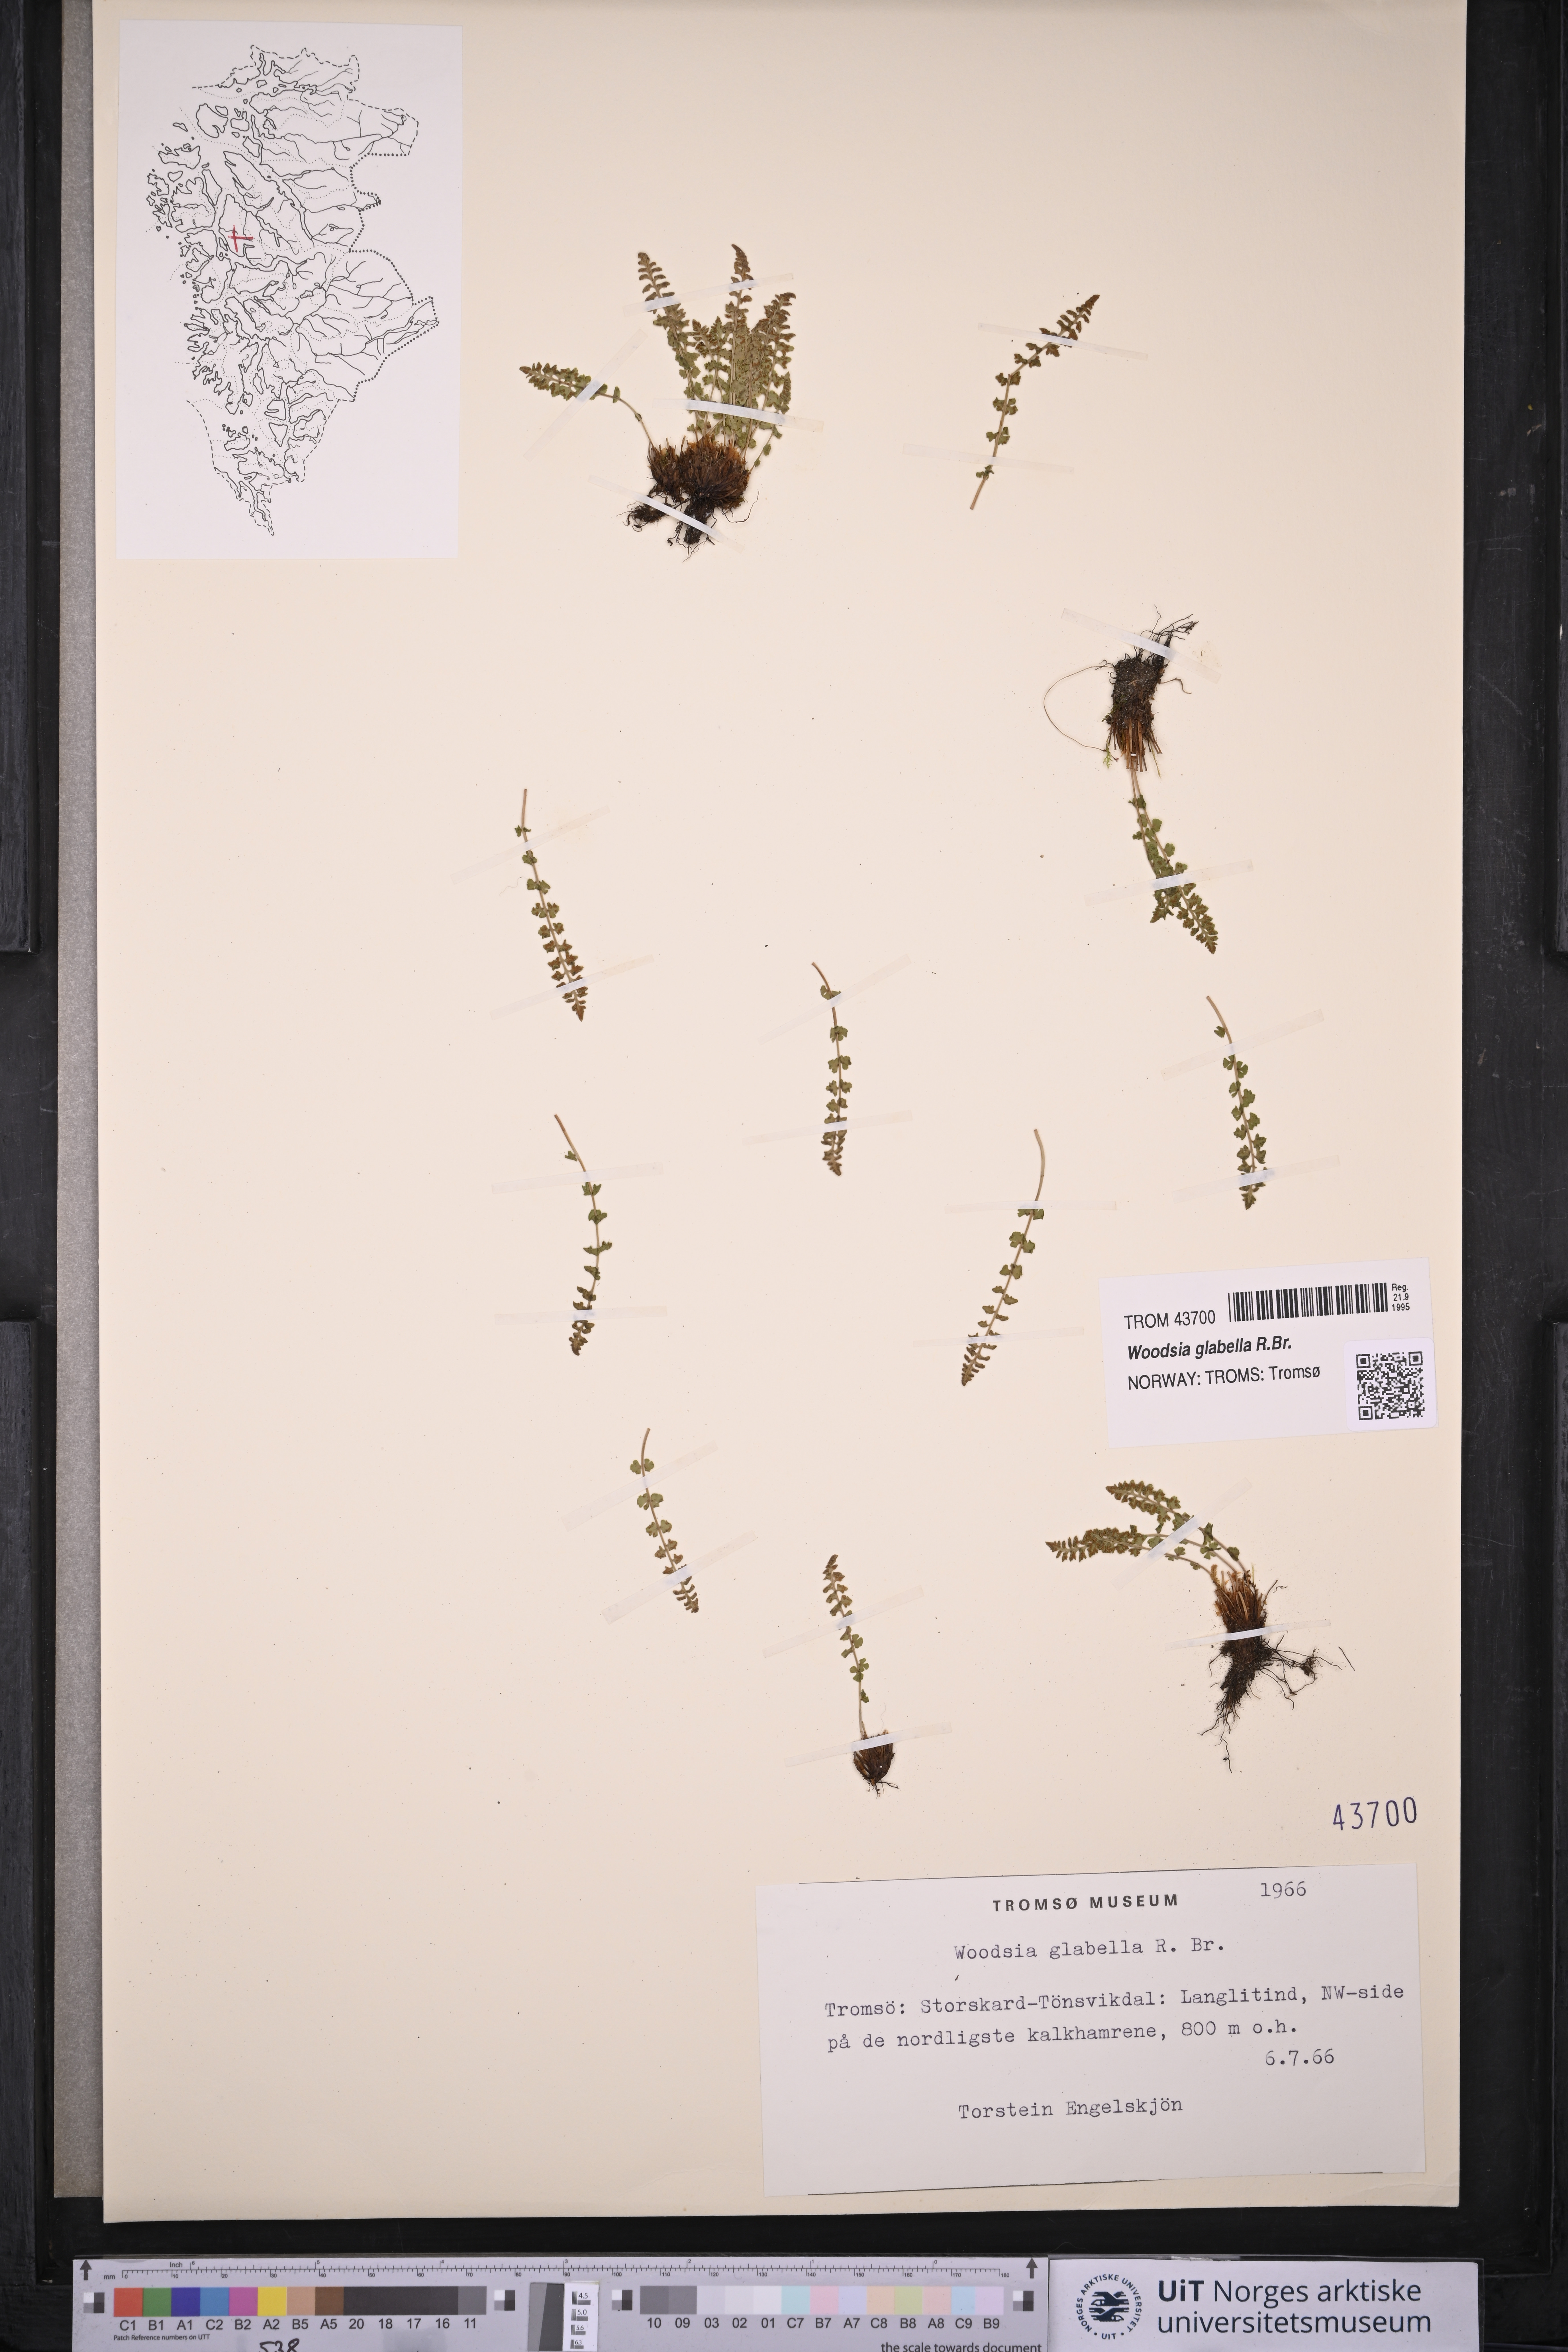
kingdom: Plantae
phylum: Tracheophyta
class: Polypodiopsida
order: Polypodiales
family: Woodsiaceae
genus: Woodsia
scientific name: Woodsia glabella
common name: Smooth woodsia
